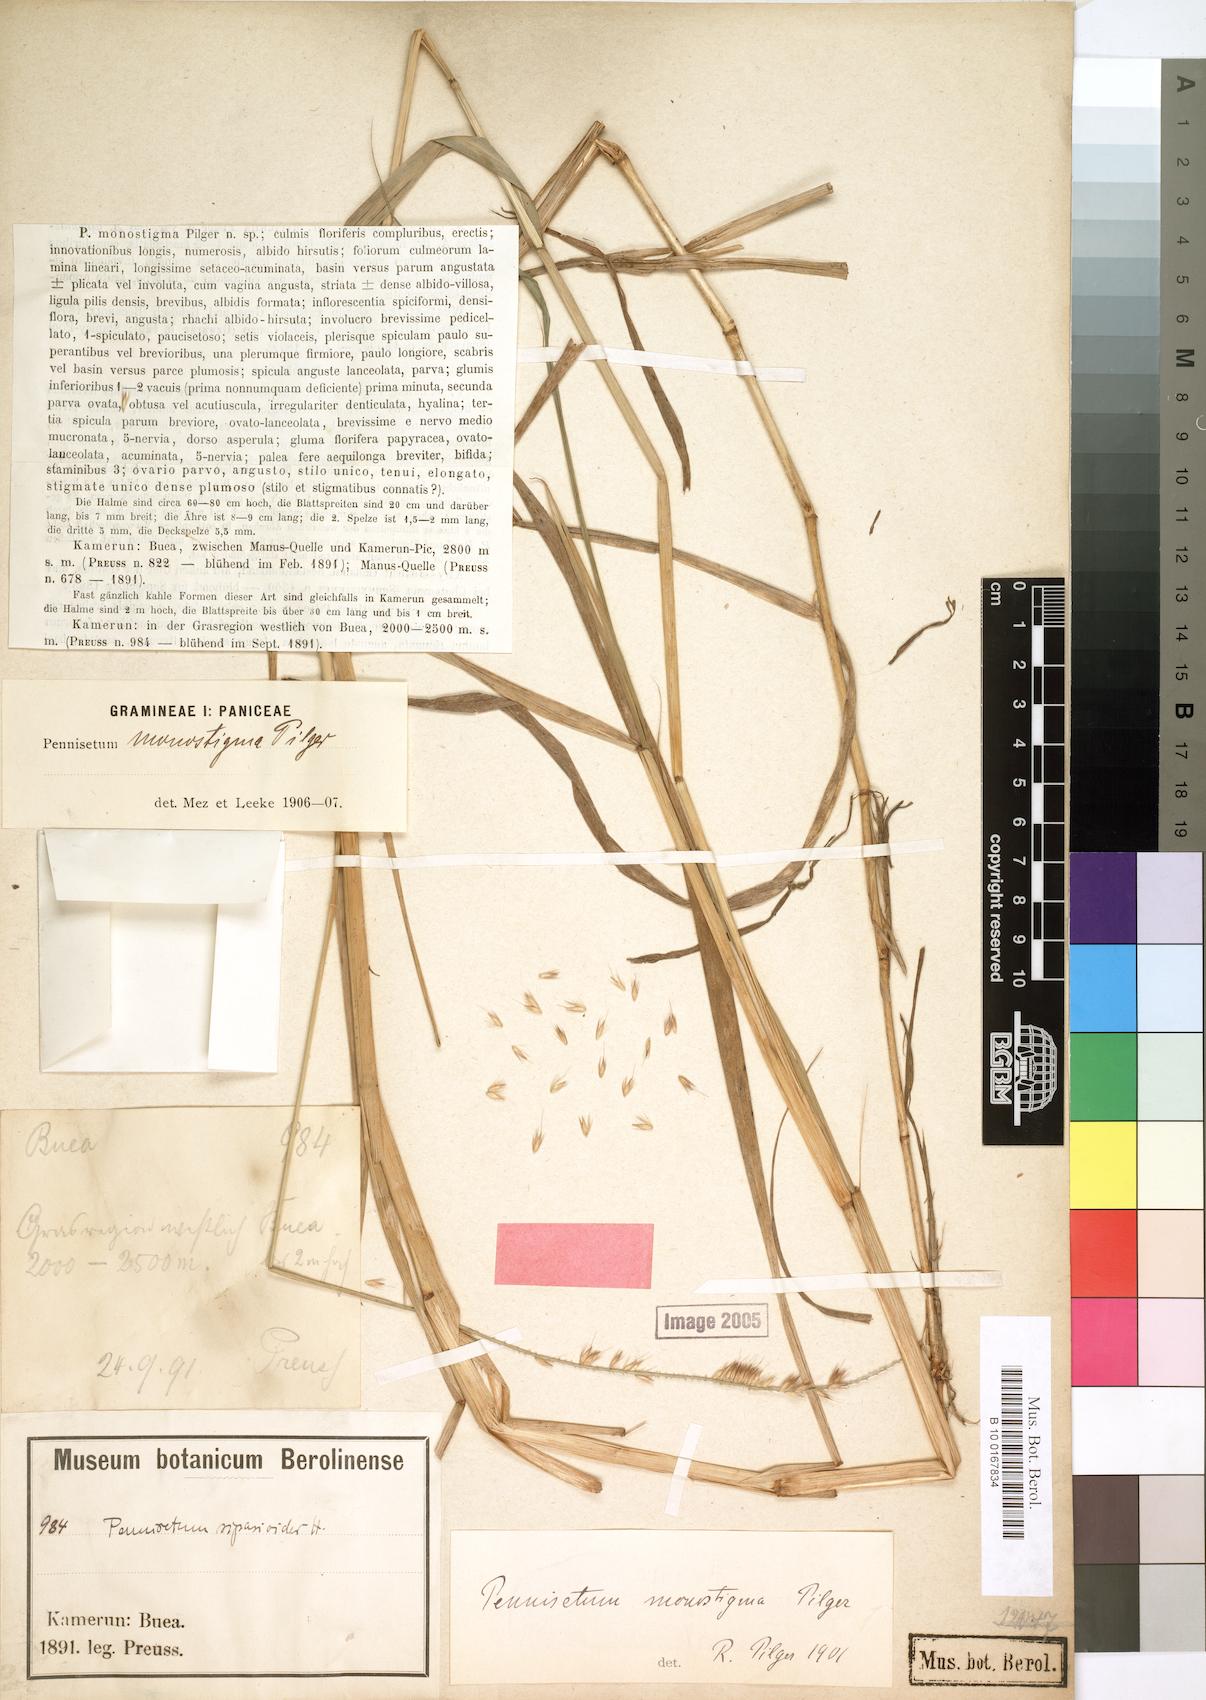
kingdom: Plantae
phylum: Tracheophyta
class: Liliopsida
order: Poales
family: Poaceae
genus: Cenchrus
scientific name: Cenchrus monostigma
